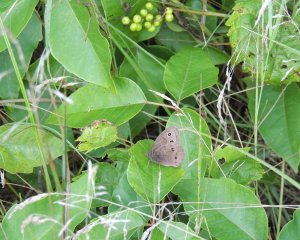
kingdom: Animalia
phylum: Arthropoda
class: Insecta
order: Lepidoptera
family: Nymphalidae
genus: Cercyonis
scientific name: Cercyonis pegala
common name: Common Wood-Nymph
